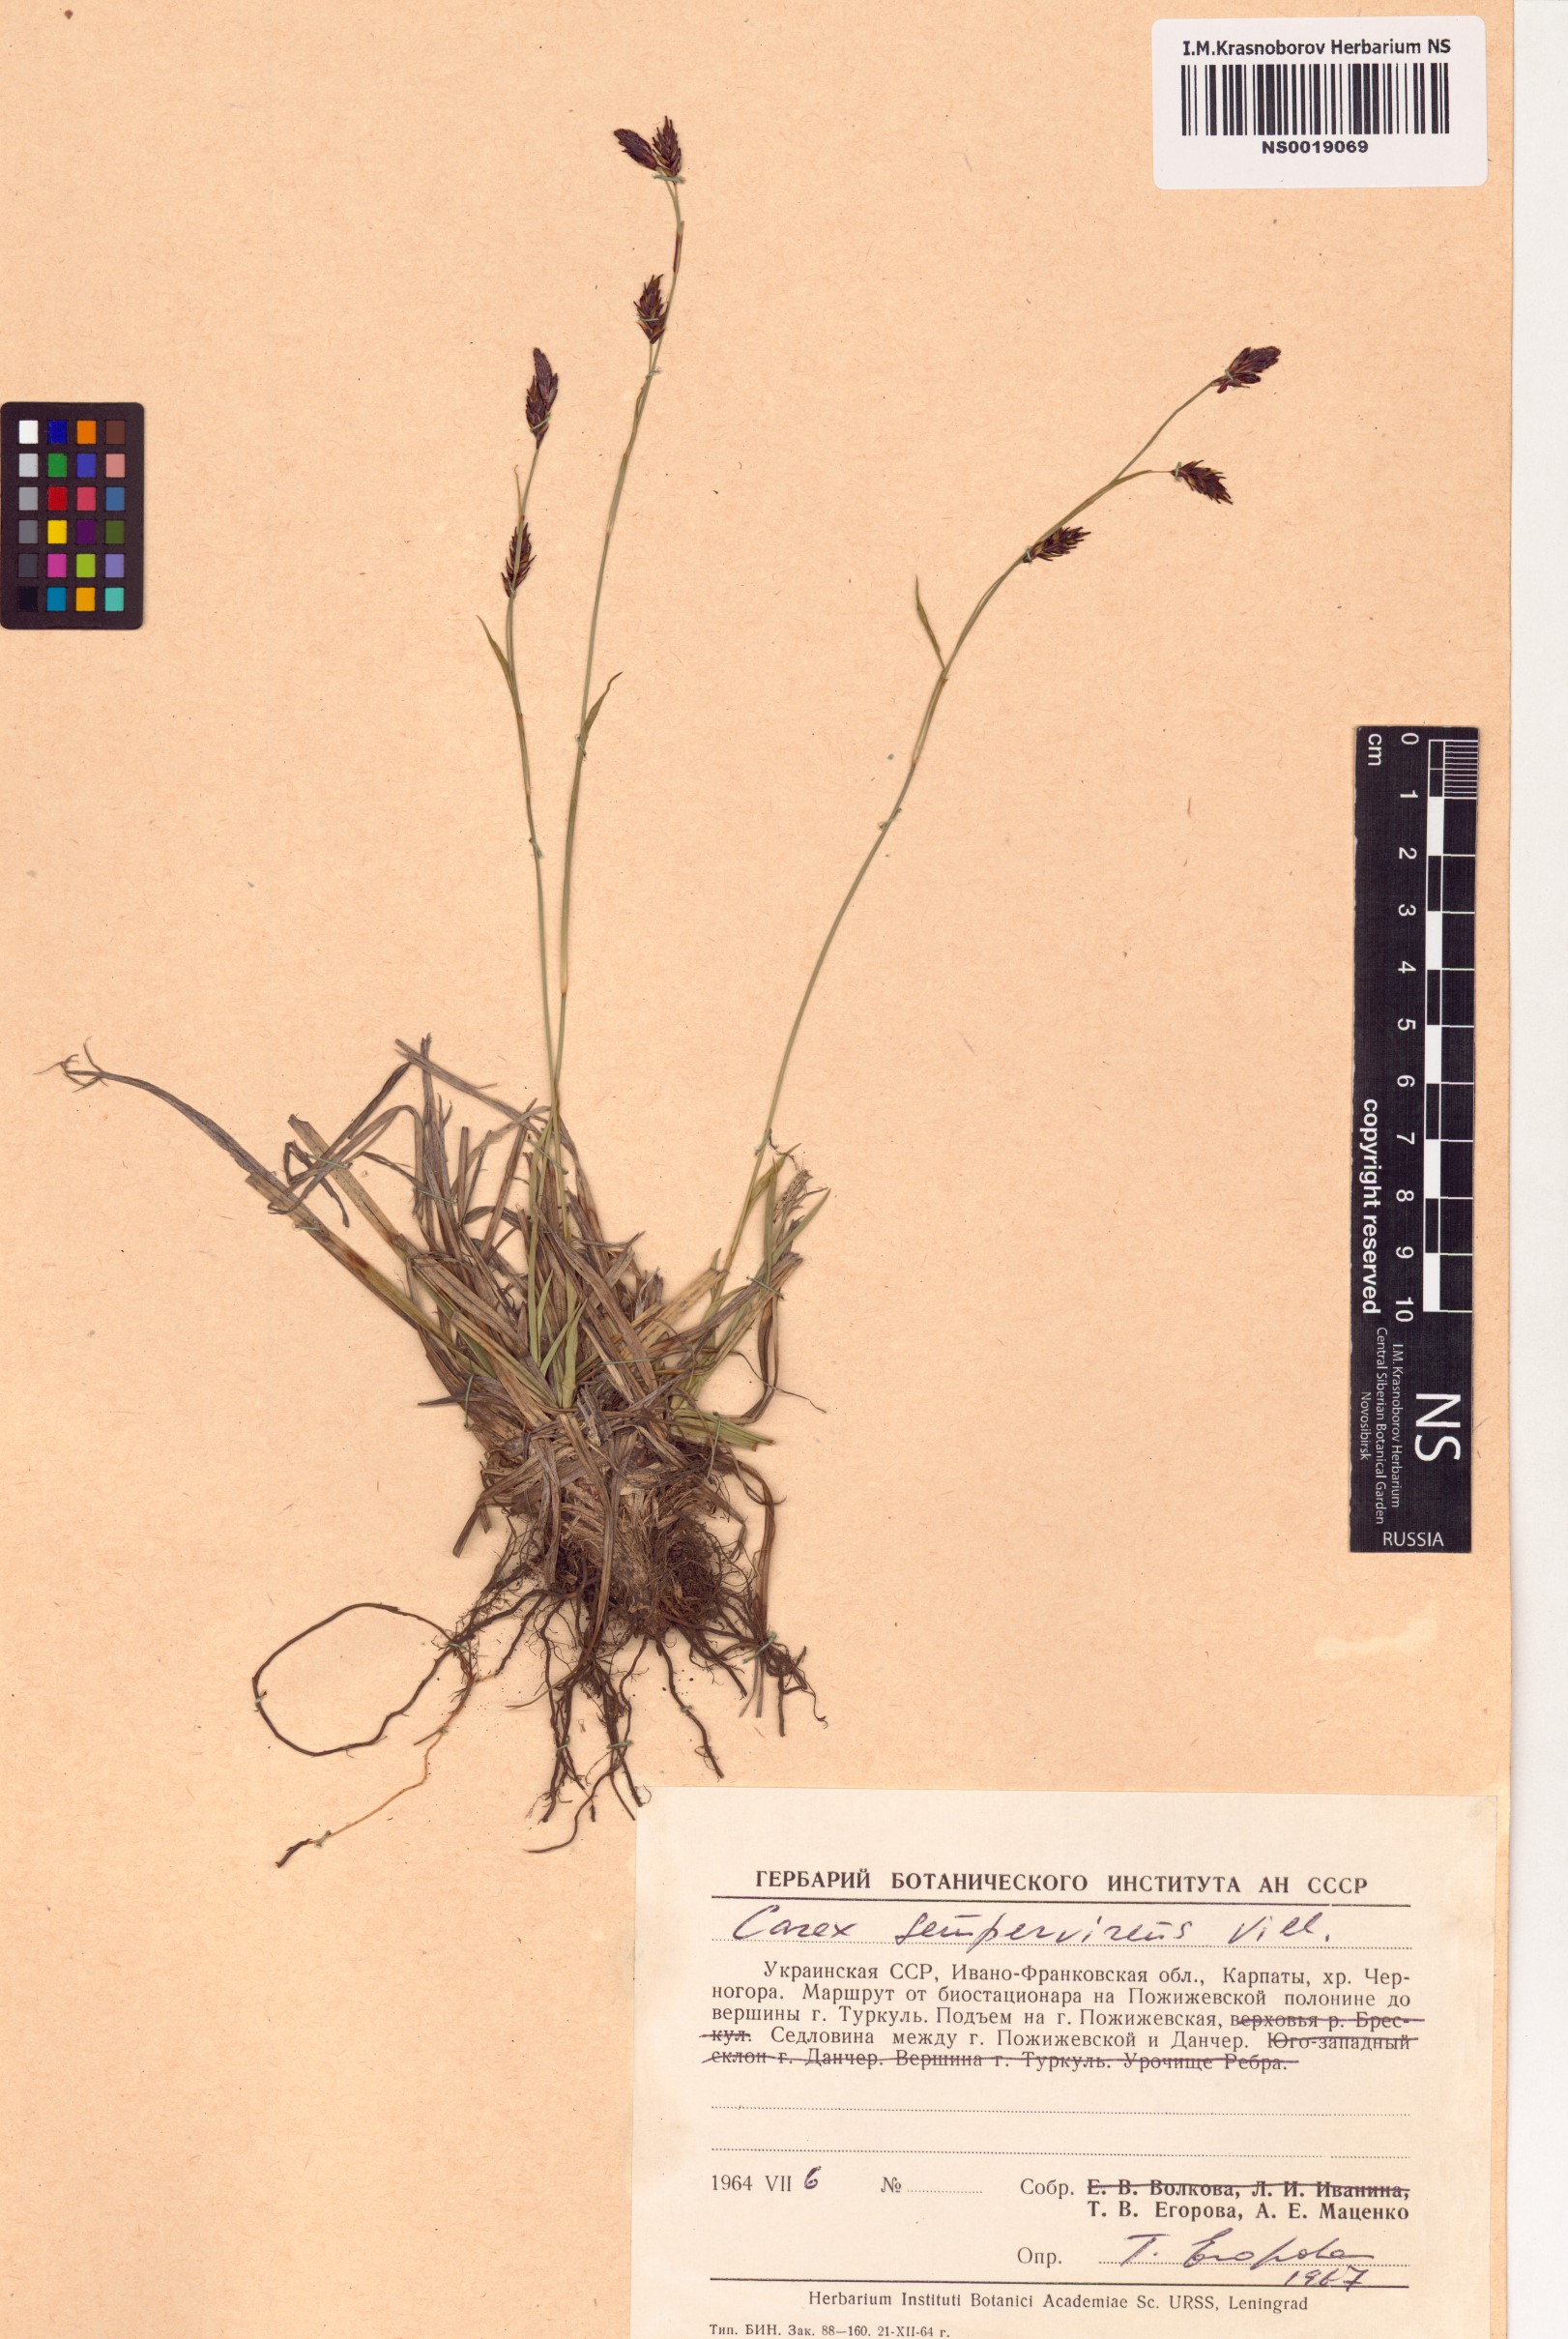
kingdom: Plantae
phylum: Tracheophyta
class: Liliopsida
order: Poales
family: Cyperaceae
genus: Carex
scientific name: Carex sempervirens
